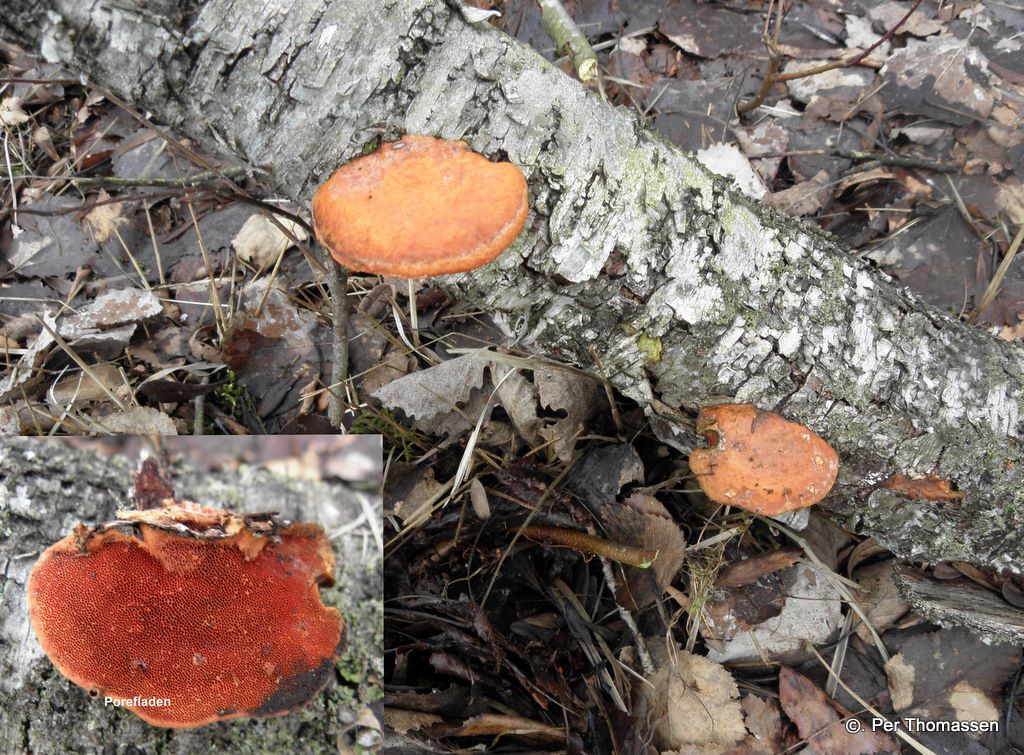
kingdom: Fungi
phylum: Basidiomycota
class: Agaricomycetes
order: Polyporales
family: Polyporaceae
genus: Trametes
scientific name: Trametes cinnabarina
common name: cinnoberporesvamp
